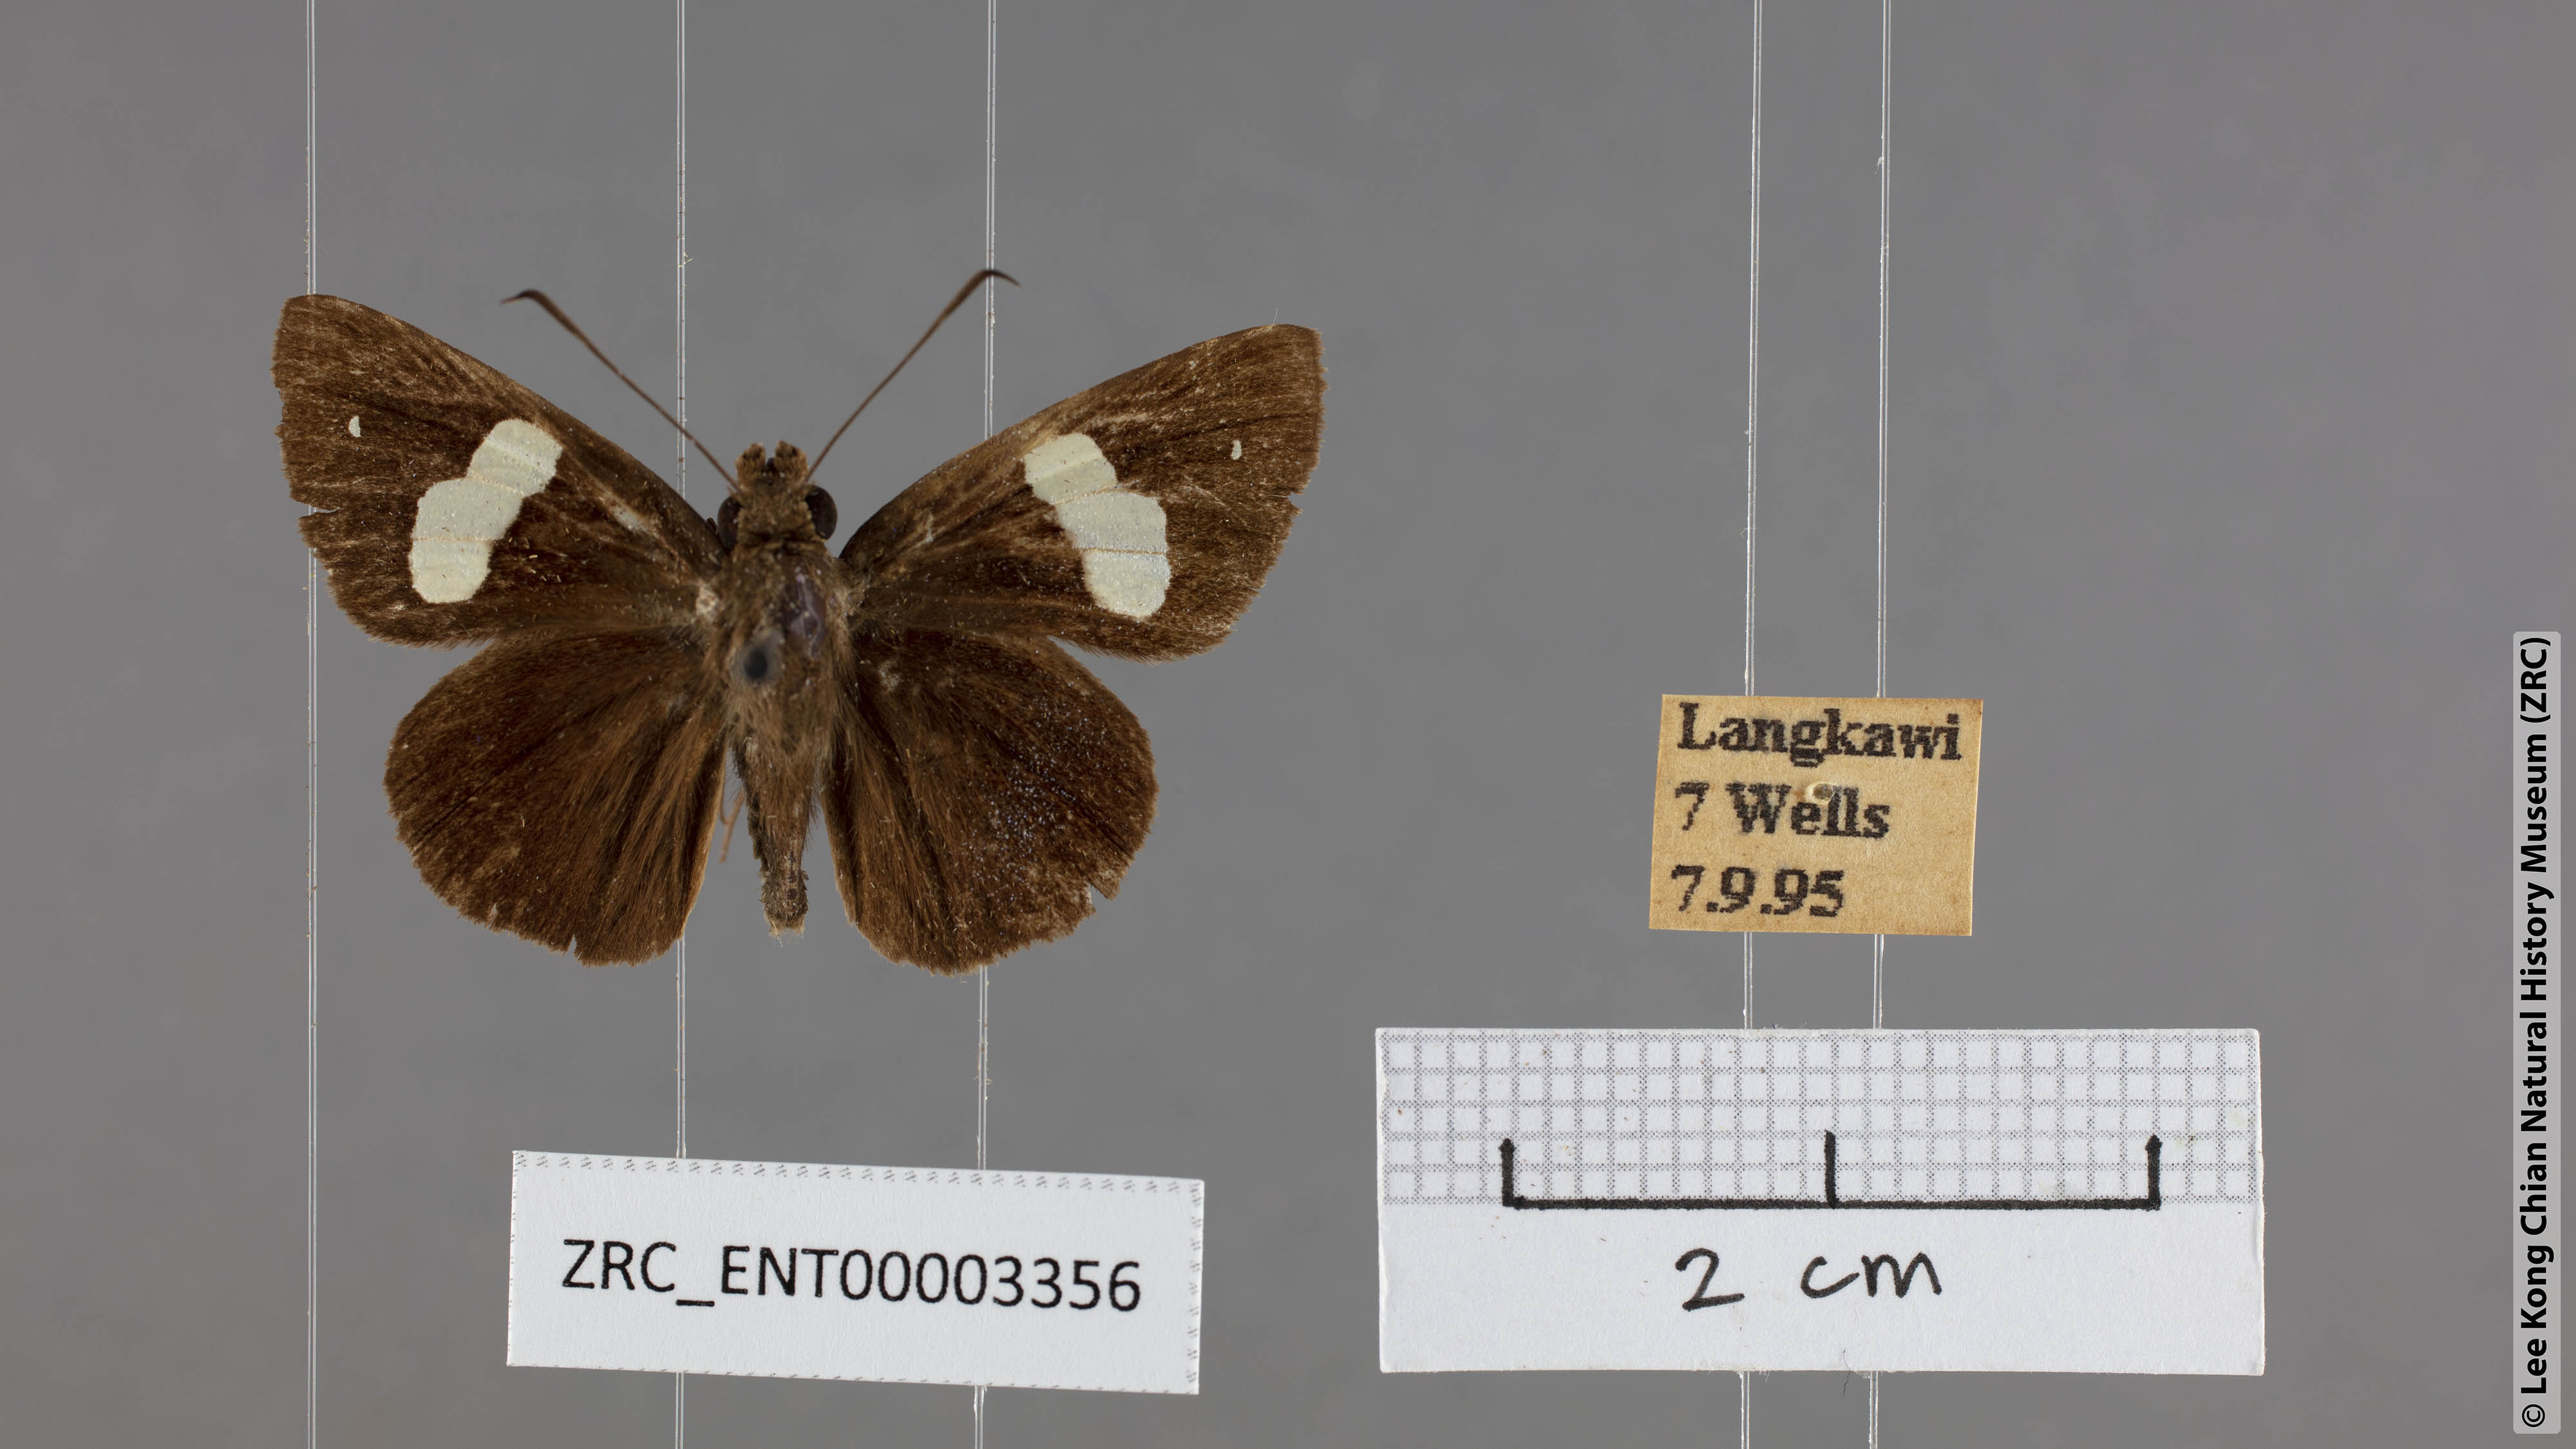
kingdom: Animalia
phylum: Arthropoda
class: Insecta
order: Lepidoptera
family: Hesperiidae
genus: Notocrypta
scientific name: Notocrypta paralysos
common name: Common banded demon
